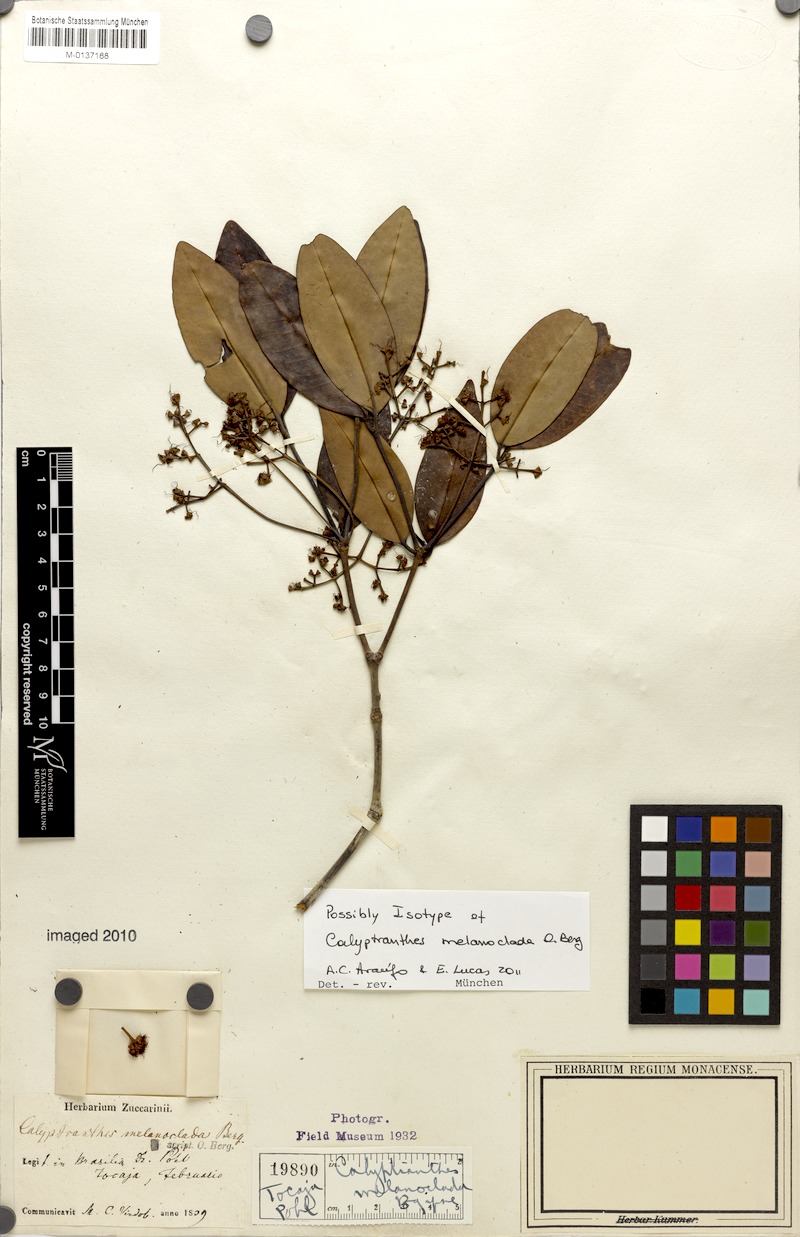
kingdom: Plantae
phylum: Tracheophyta
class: Magnoliopsida
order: Myrtales
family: Myrtaceae
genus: Calyptranthes
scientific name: Calyptranthes melanoclada
